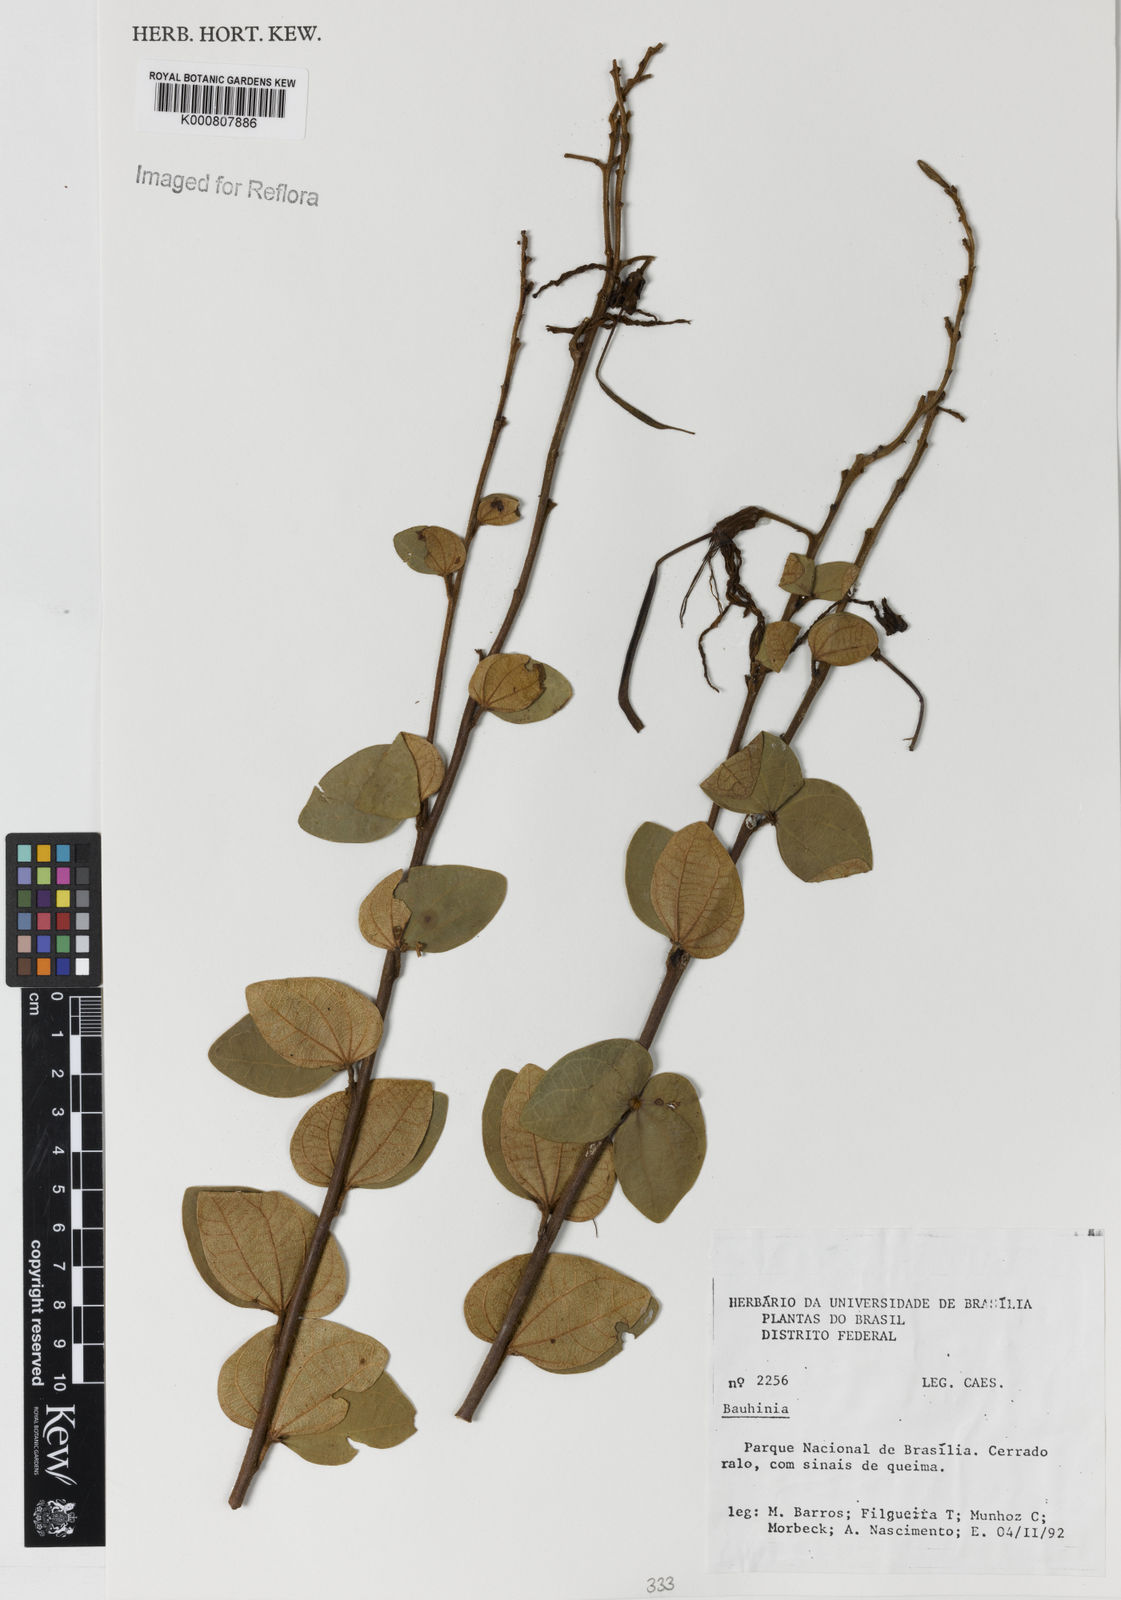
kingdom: Plantae
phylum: Tracheophyta
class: Magnoliopsida
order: Fabales
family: Fabaceae
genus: Bauhinia
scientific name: Bauhinia
